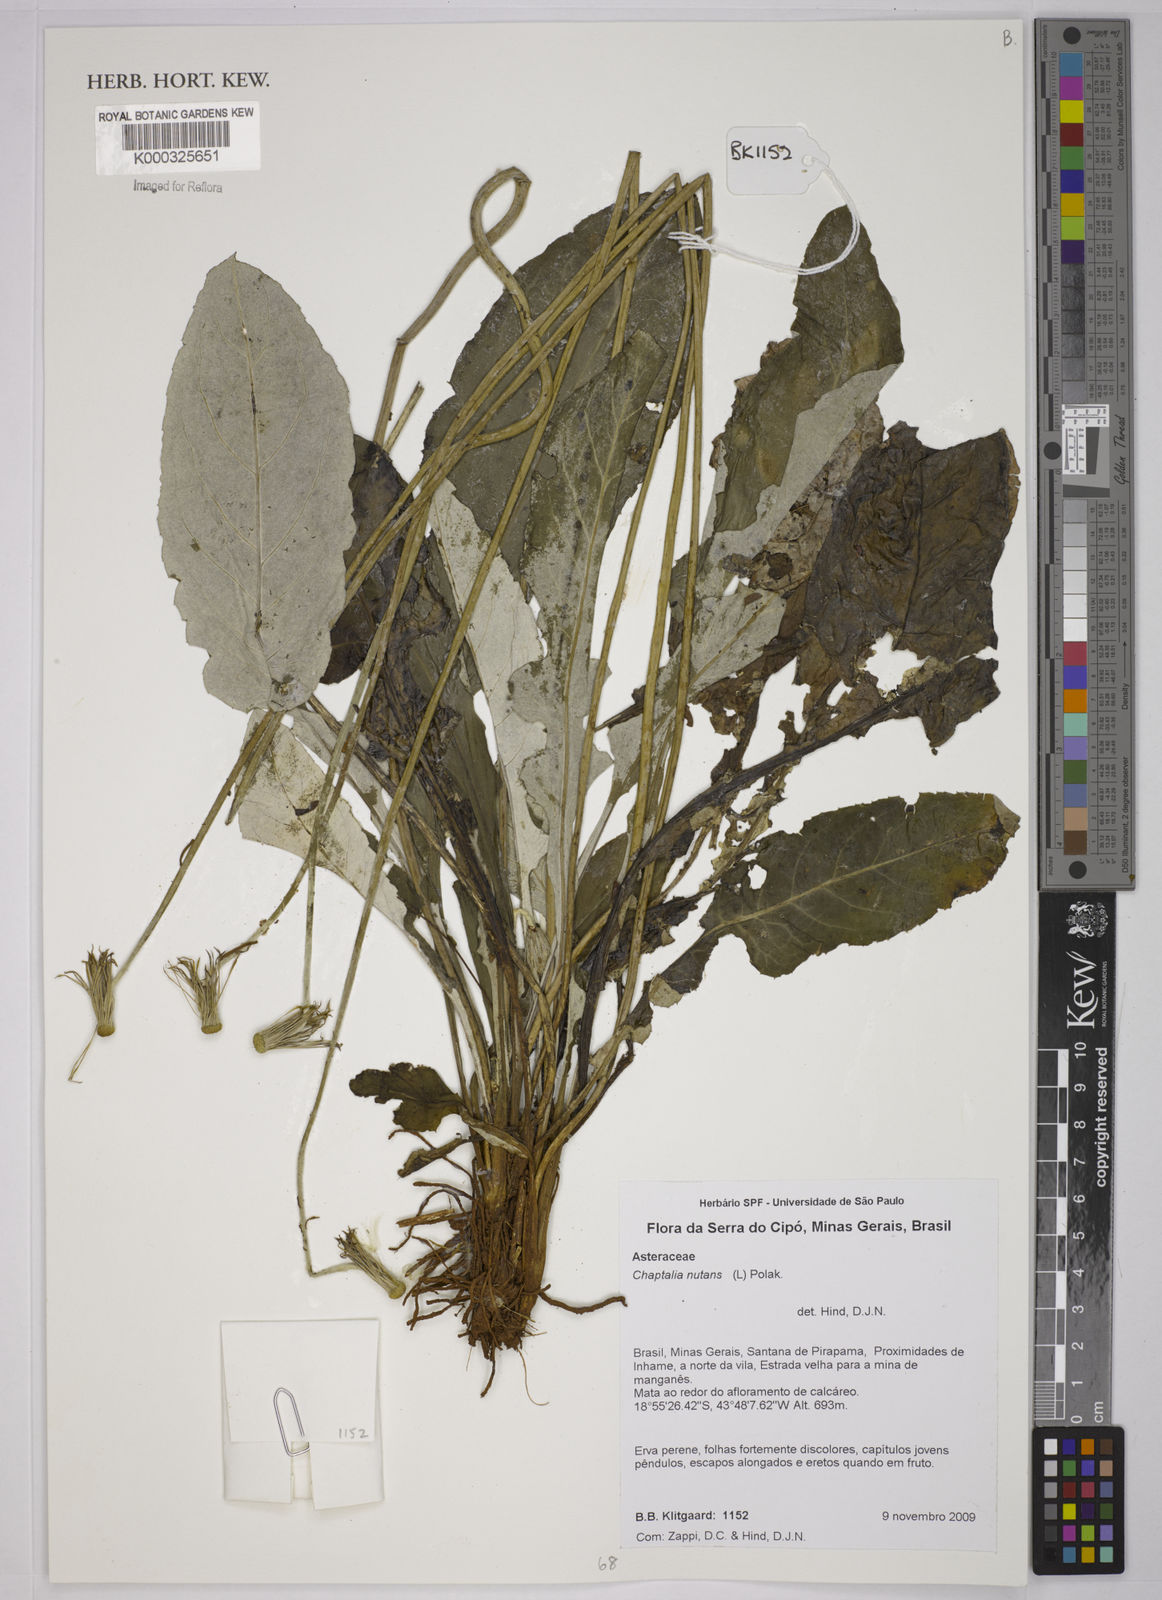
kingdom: Plantae
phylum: Tracheophyta
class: Magnoliopsida
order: Asterales
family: Asteraceae
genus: Chaptalia
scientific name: Chaptalia nutans
